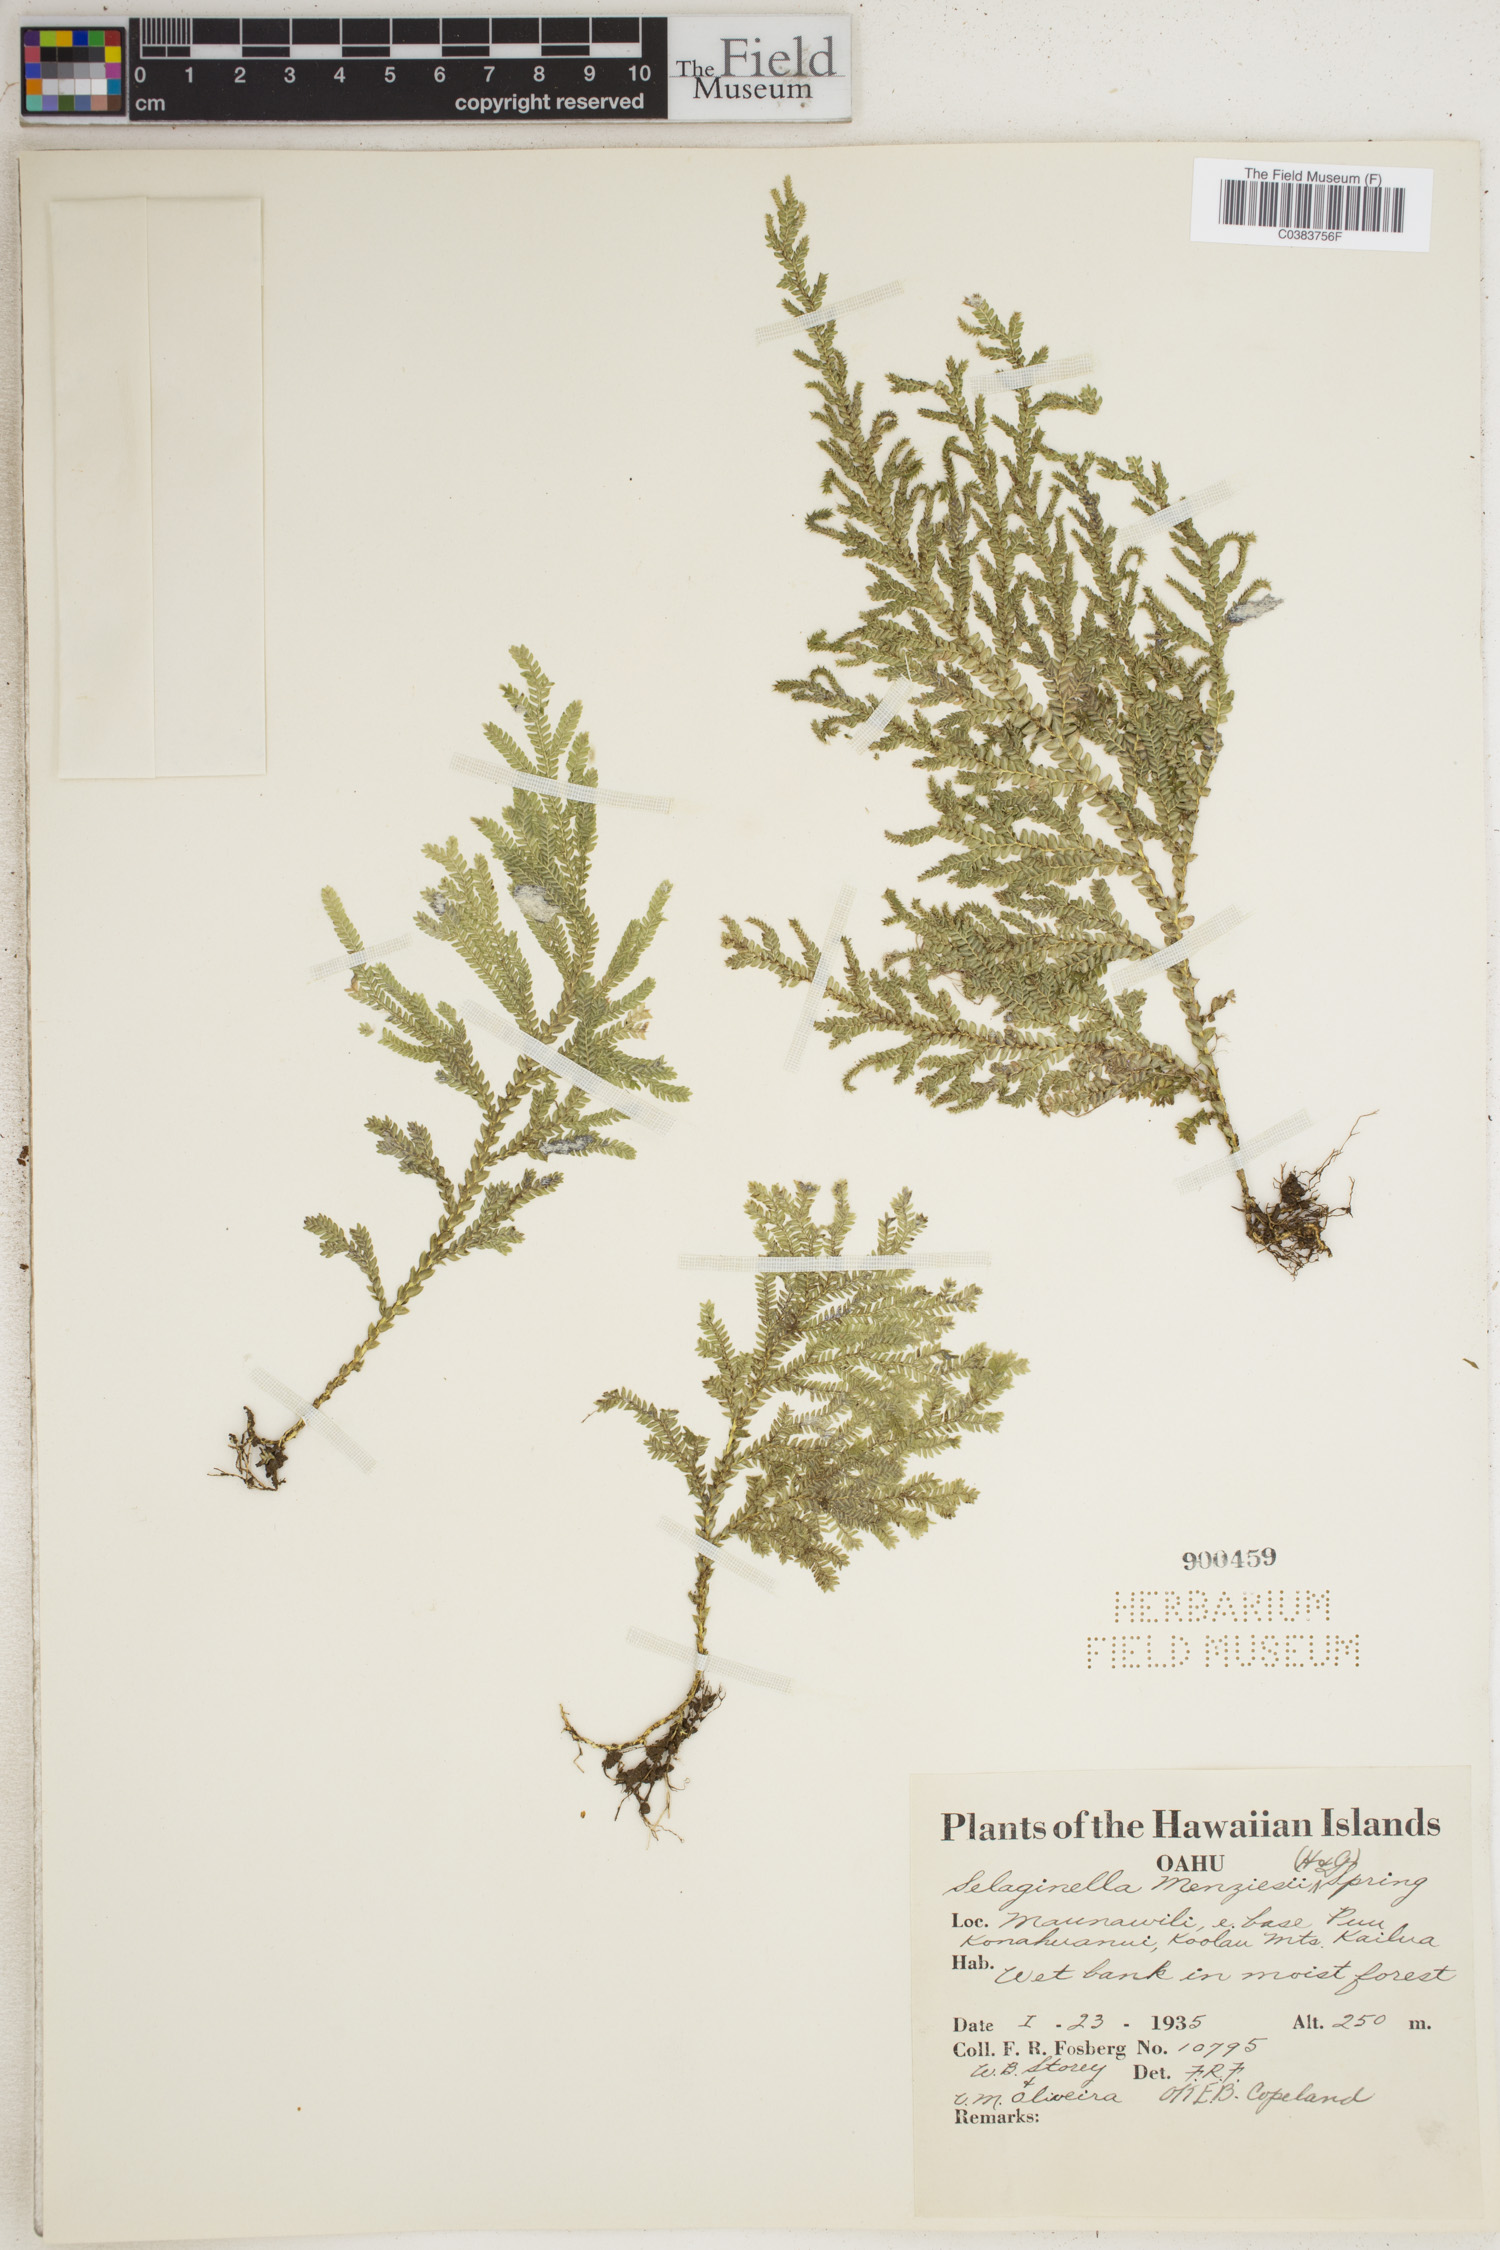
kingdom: Plantae
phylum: Tracheophyta
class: Lycopodiopsida
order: Selaginellales
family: Selaginellaceae
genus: Selaginella
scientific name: Selaginella menziesii
